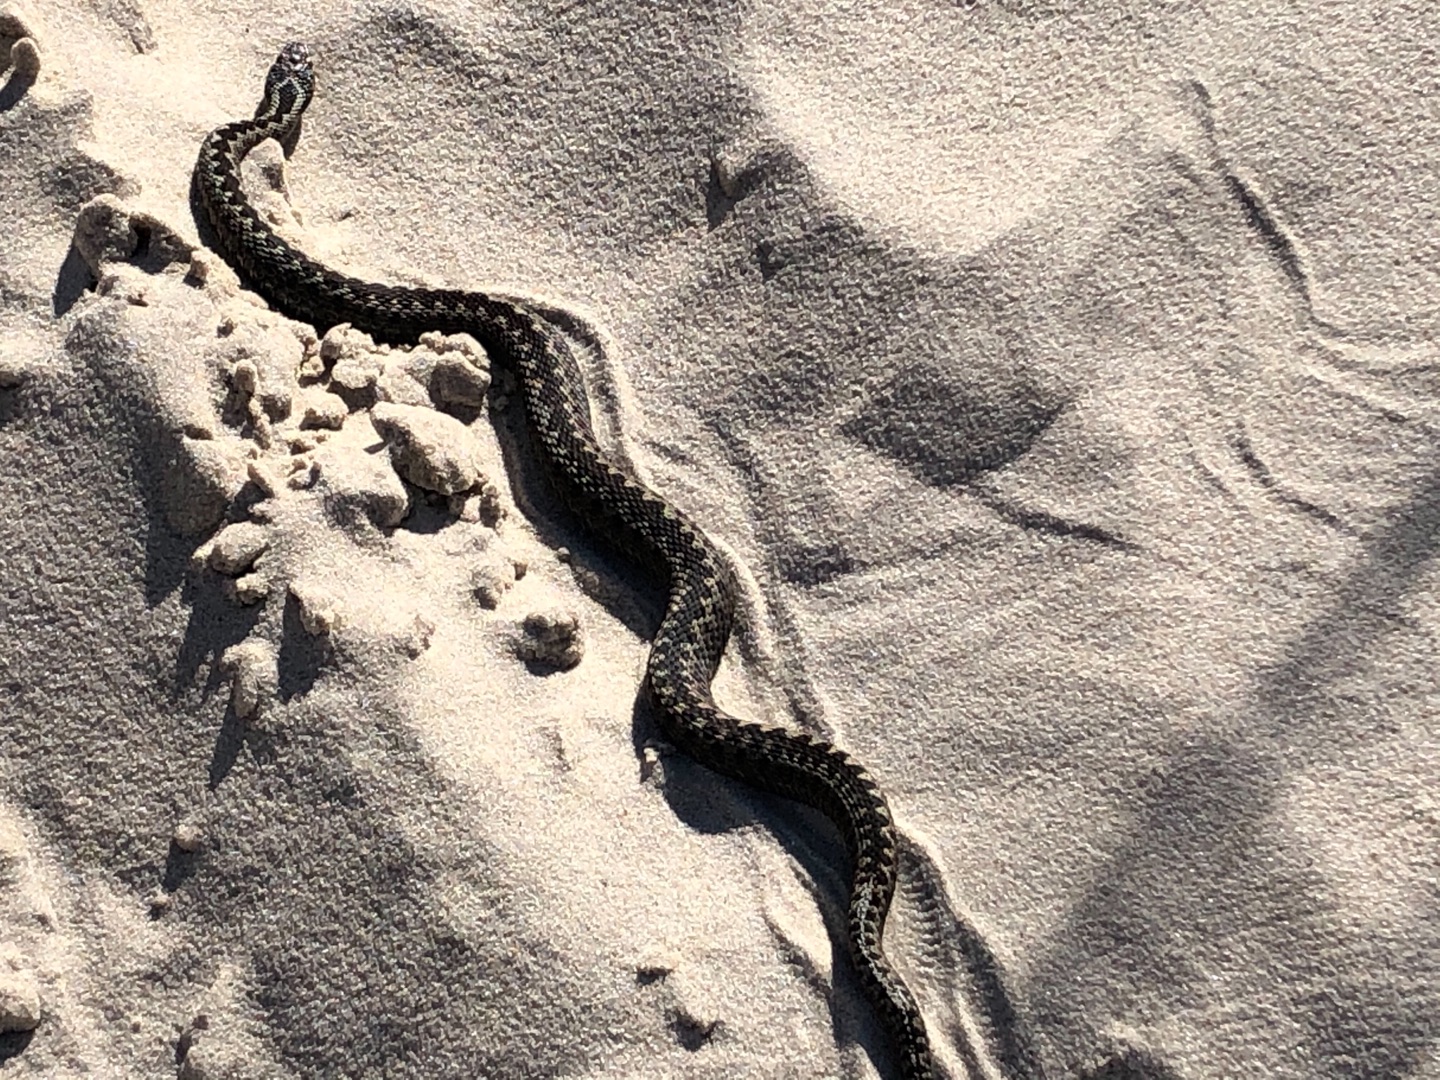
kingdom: Animalia
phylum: Chordata
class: Squamata
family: Viperidae
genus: Vipera
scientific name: Vipera berus
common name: Hugorm
